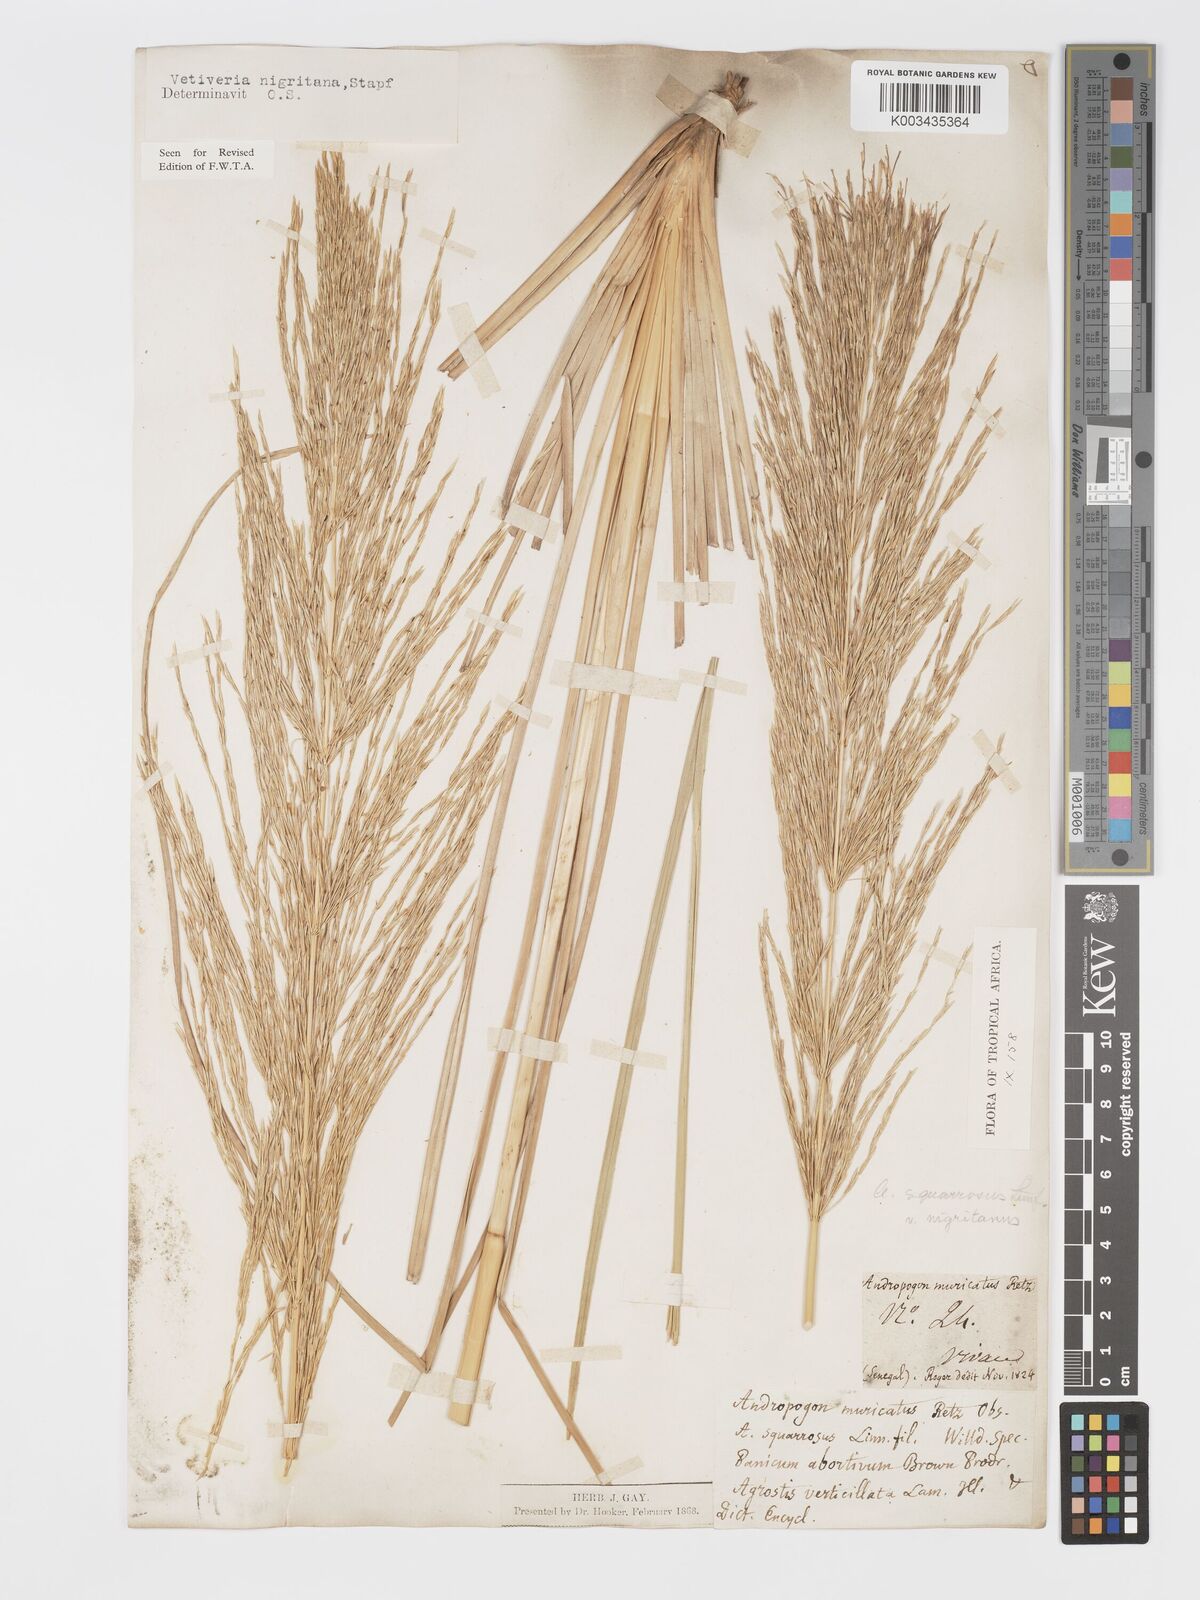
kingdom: Plantae
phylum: Tracheophyta
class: Liliopsida
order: Poales
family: Poaceae
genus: Chrysopogon
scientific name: Chrysopogon nigritanus
